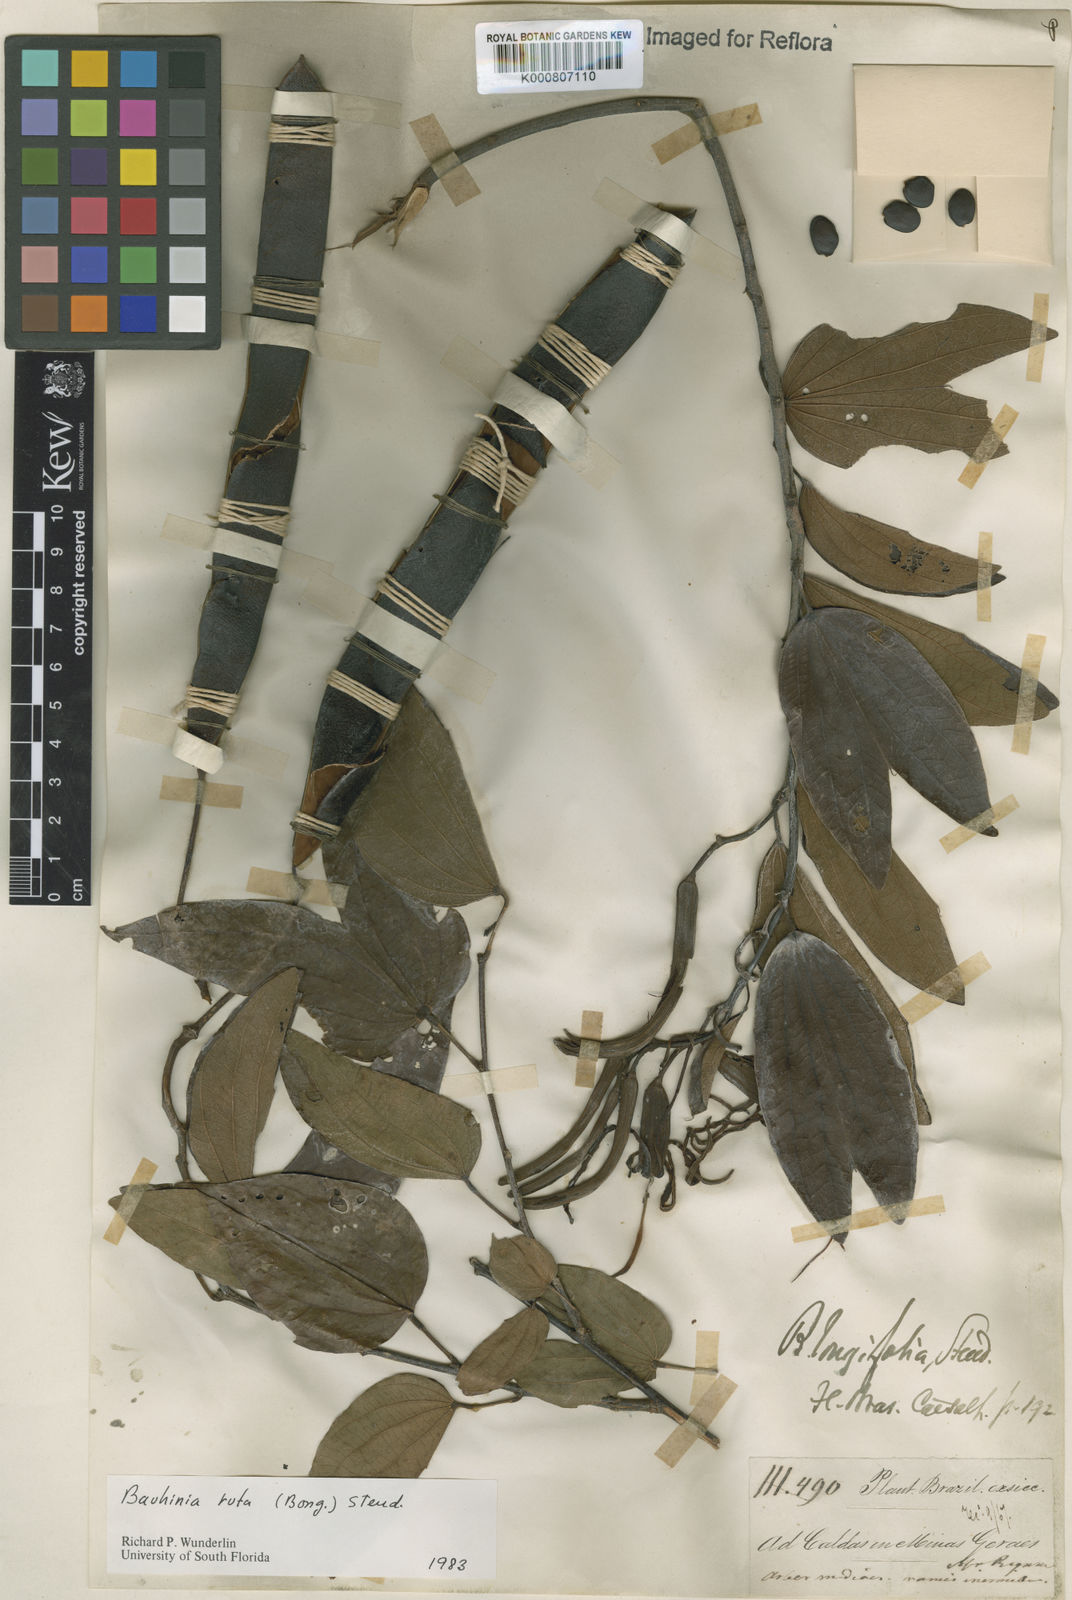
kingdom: Plantae
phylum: Tracheophyta
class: Magnoliopsida
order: Fabales
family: Fabaceae
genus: Bauhinia
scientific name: Bauhinia rufa
